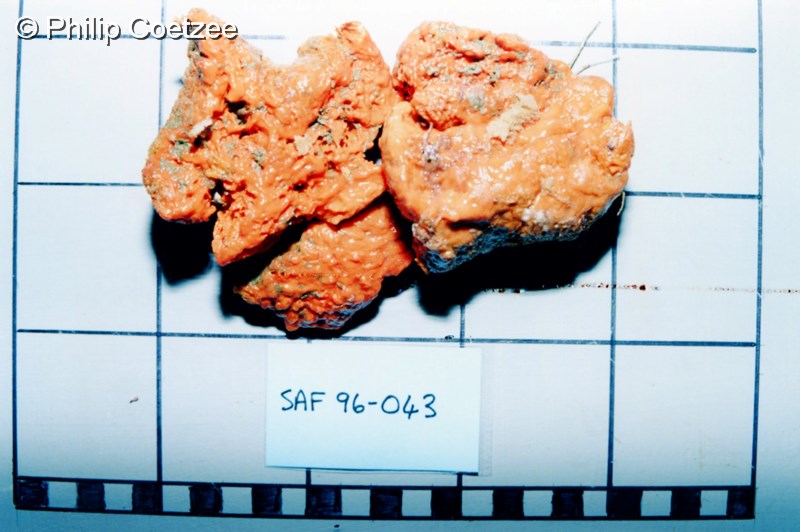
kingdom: Animalia
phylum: Porifera
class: Demospongiae
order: Poecilosclerida
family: Tedaniidae
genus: Tedania
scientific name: Tedania scotiae
